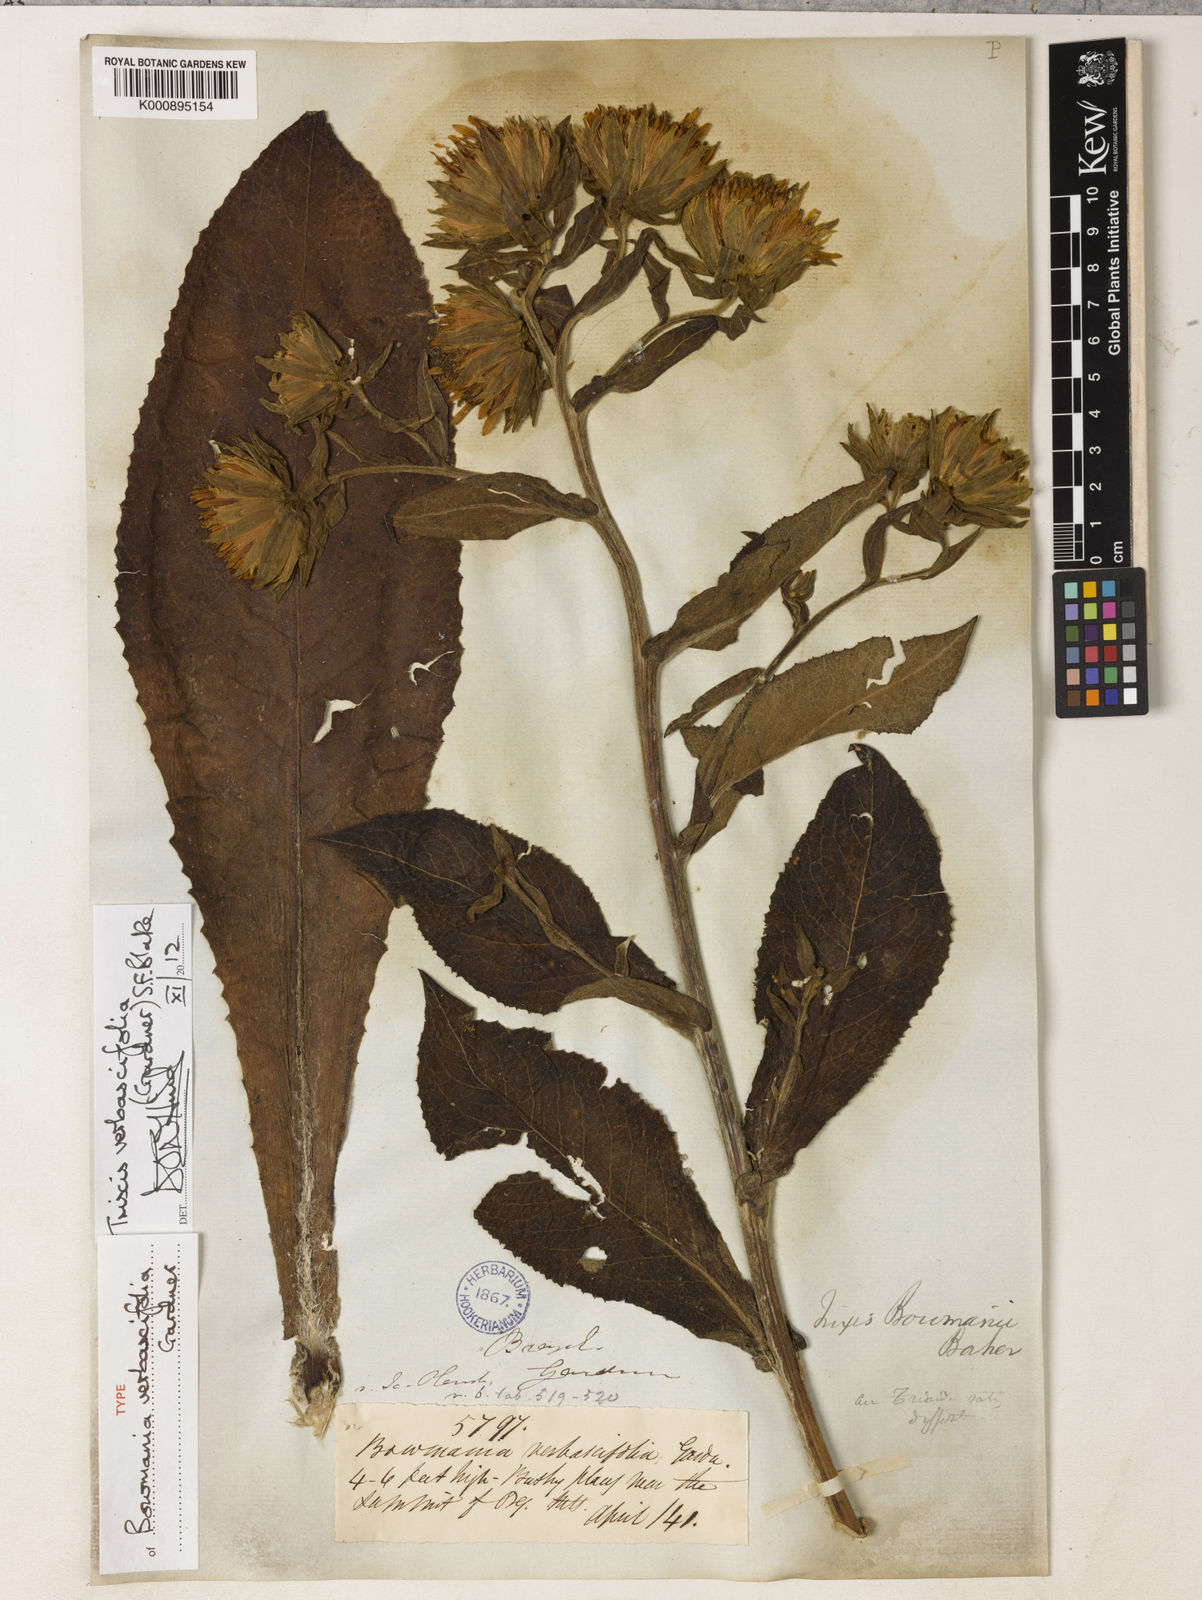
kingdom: Plantae
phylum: Tracheophyta
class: Magnoliopsida
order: Asterales
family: Asteraceae
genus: Trixis
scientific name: Trixis verbascifolia
